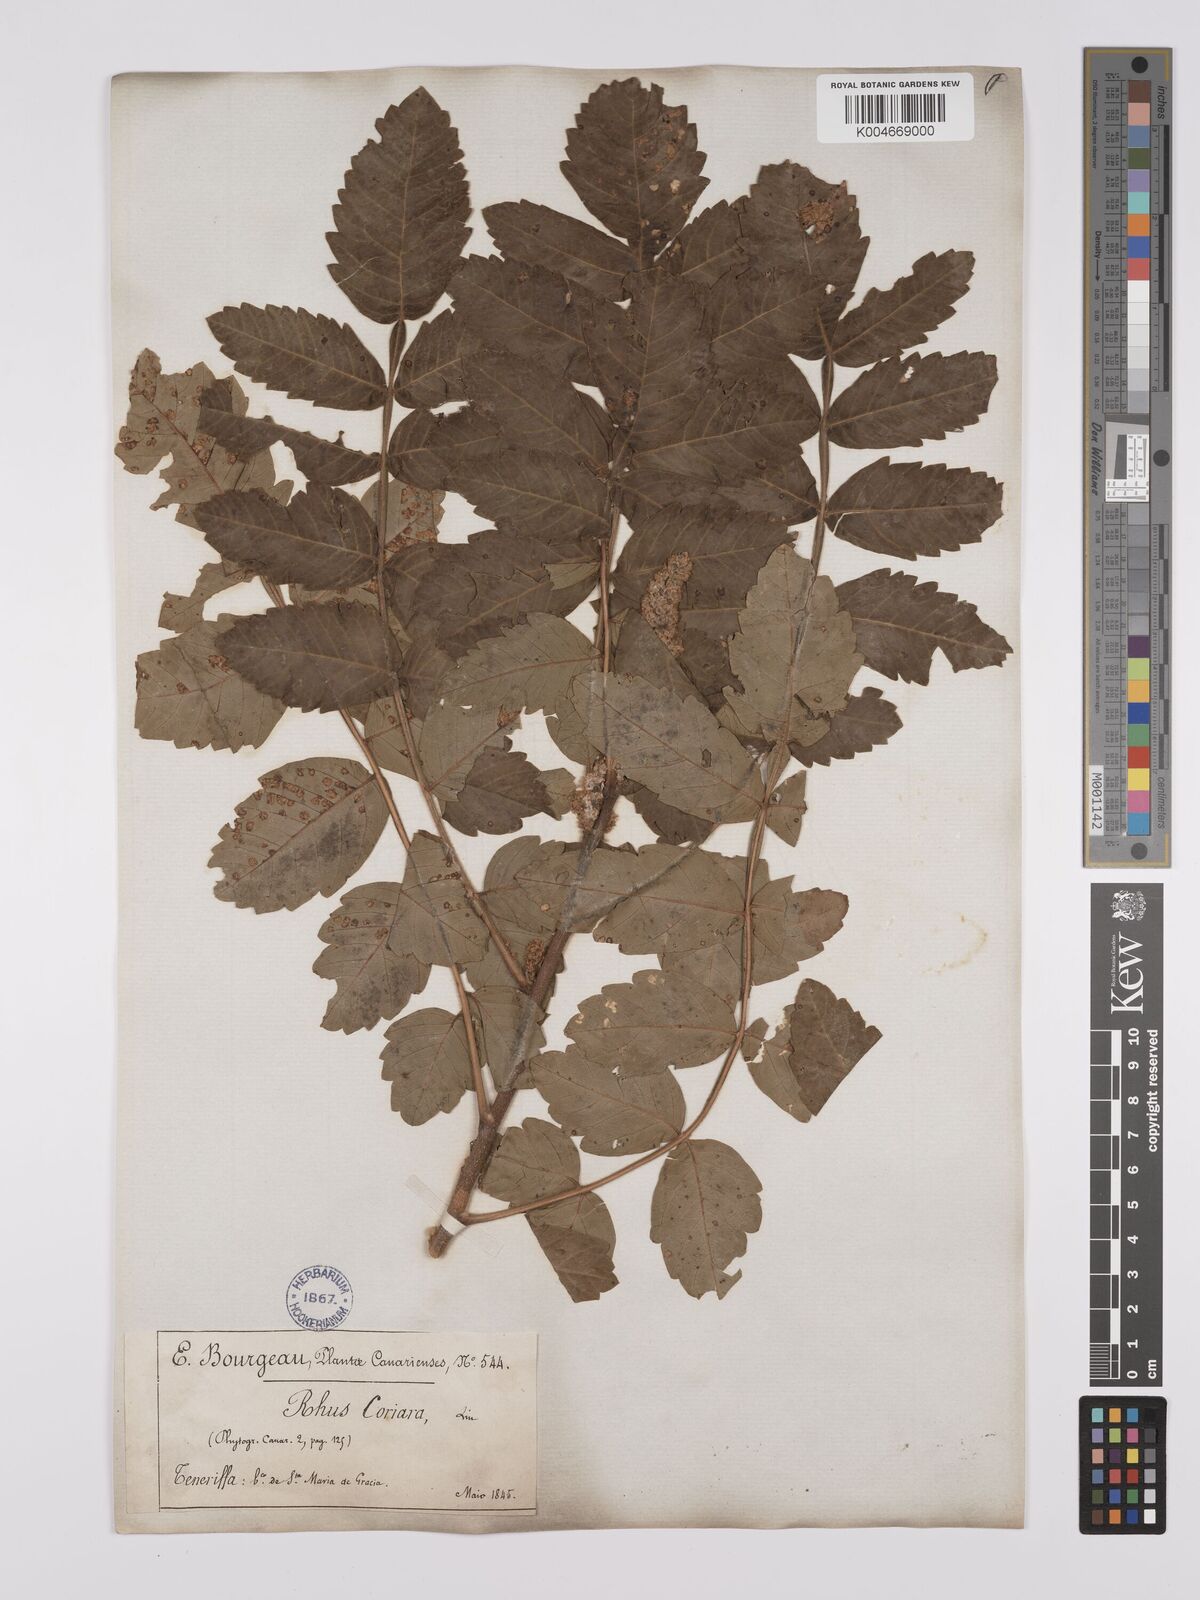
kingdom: Plantae
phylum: Tracheophyta
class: Magnoliopsida
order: Sapindales
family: Anacardiaceae
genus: Rhus
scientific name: Rhus coriaria
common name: Tanner's sumach
